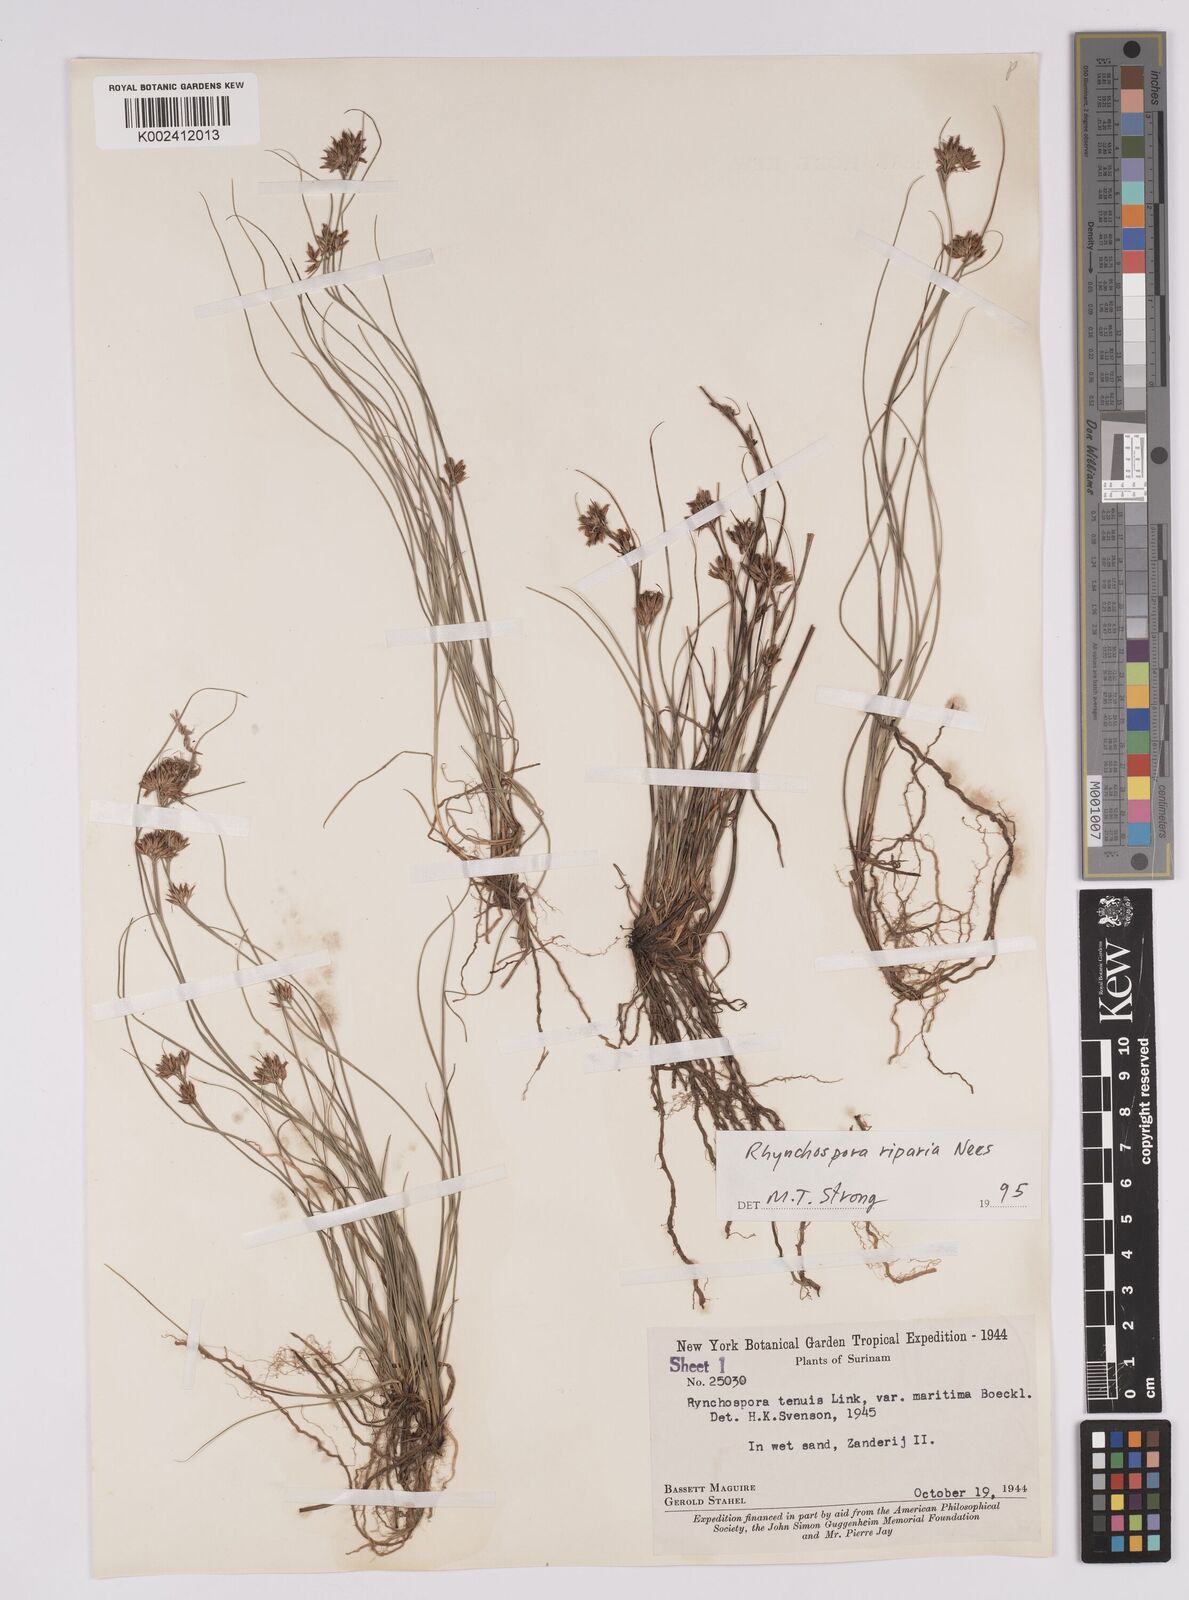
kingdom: Plantae
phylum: Tracheophyta
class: Liliopsida
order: Poales
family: Cyperaceae
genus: Rhynchospora
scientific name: Rhynchospora riparia
